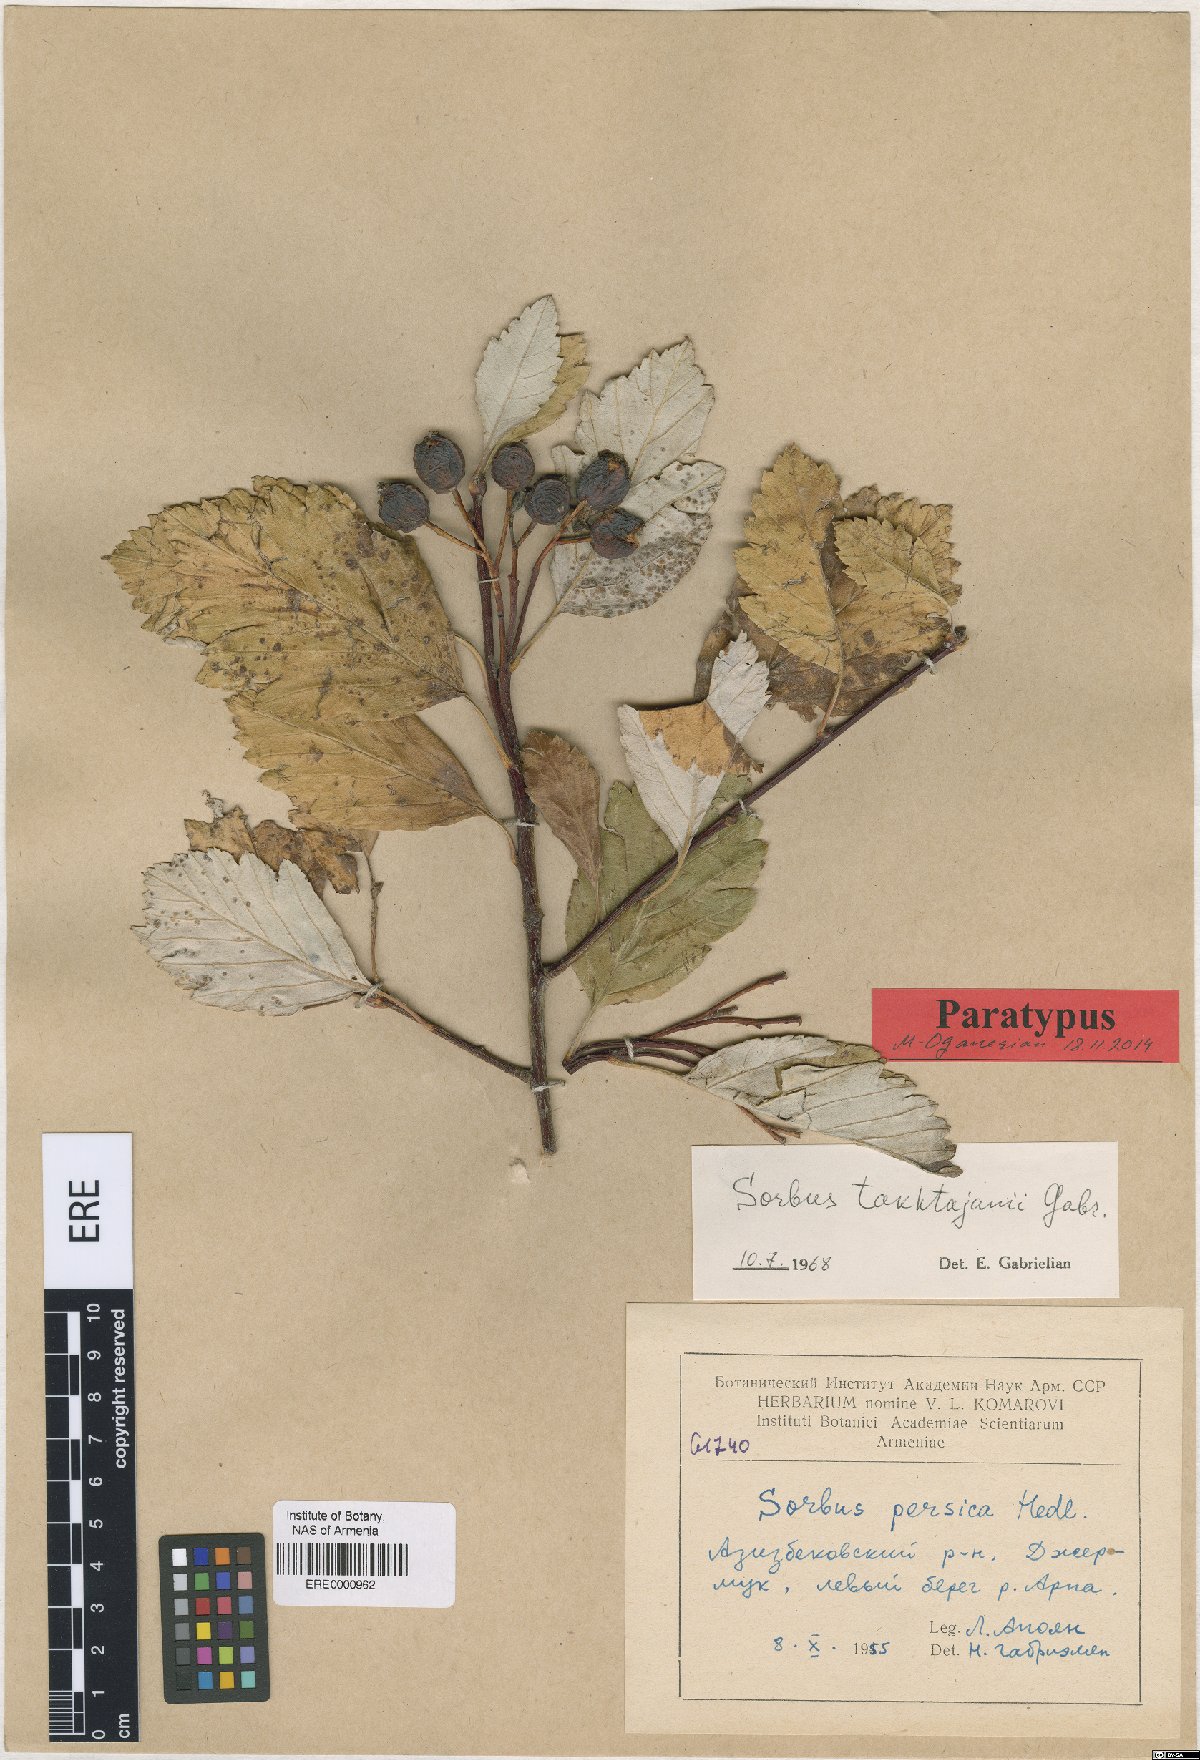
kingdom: Plantae
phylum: Tracheophyta
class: Magnoliopsida
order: Rosales
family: Rosaceae
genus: Hedlundia
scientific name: Hedlundia takhtajanii
